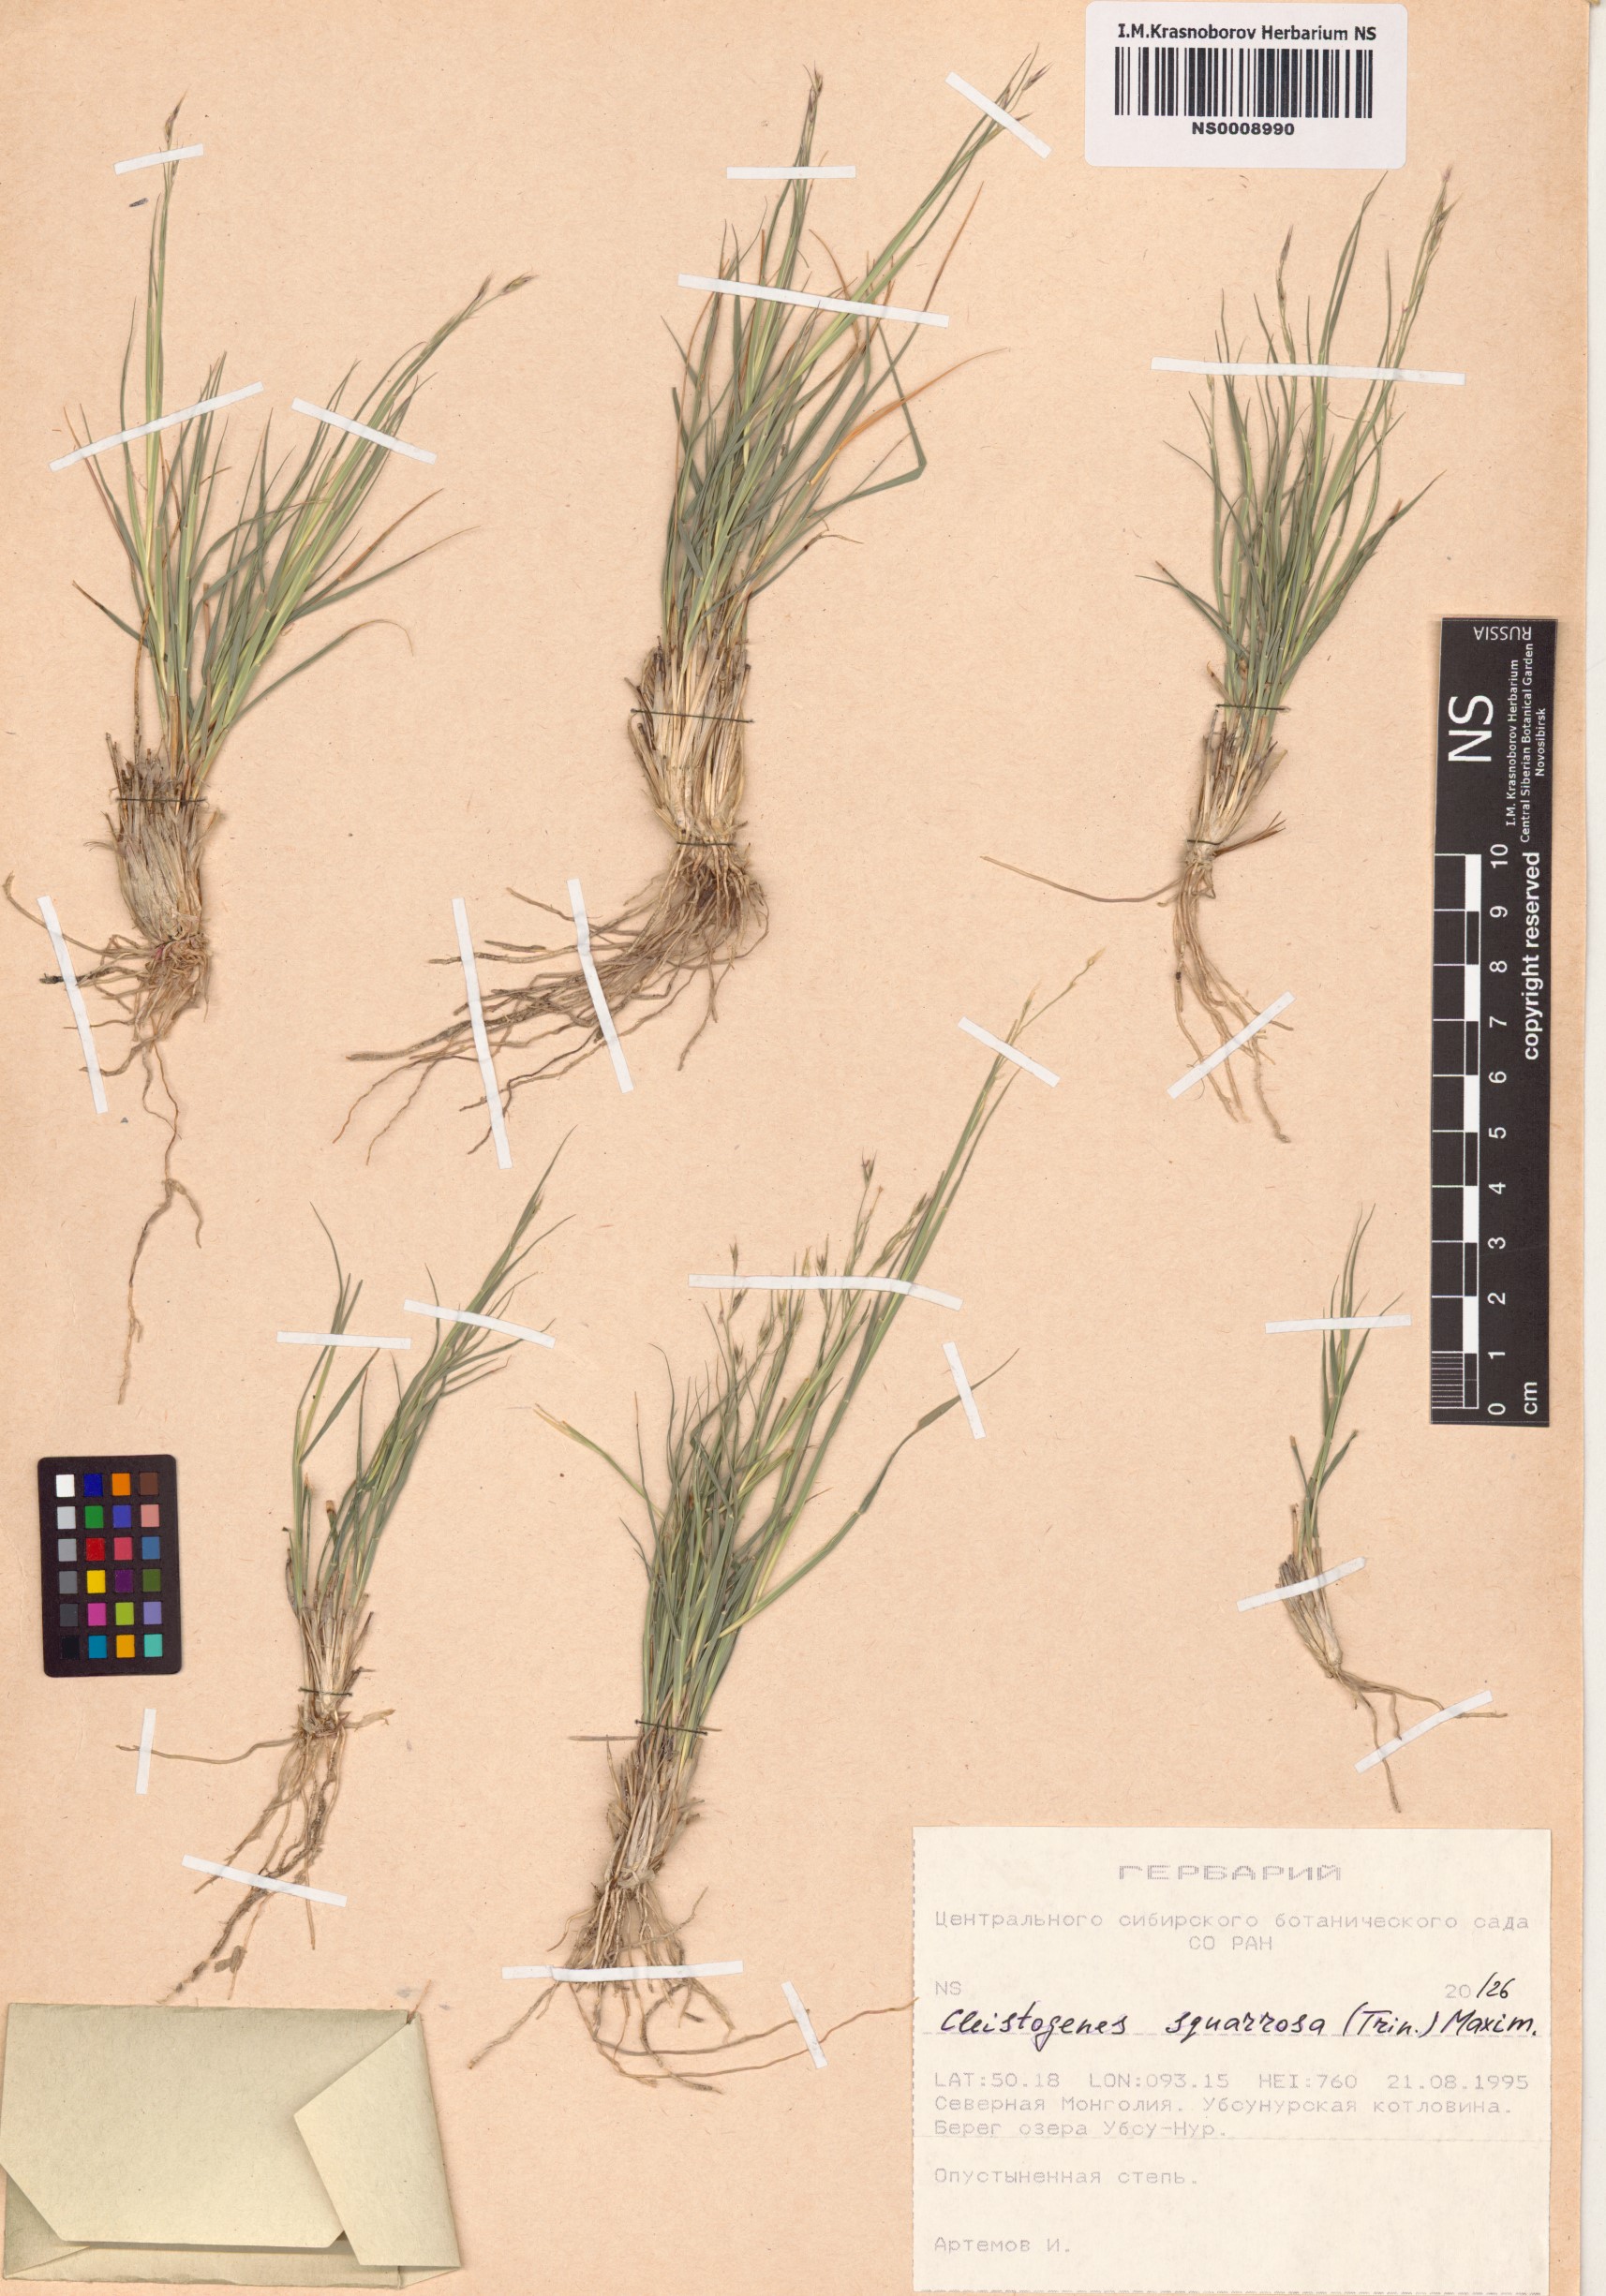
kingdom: Plantae
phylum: Tracheophyta
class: Liliopsida
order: Poales
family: Poaceae
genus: Cleistogenes
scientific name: Cleistogenes squarrosa
